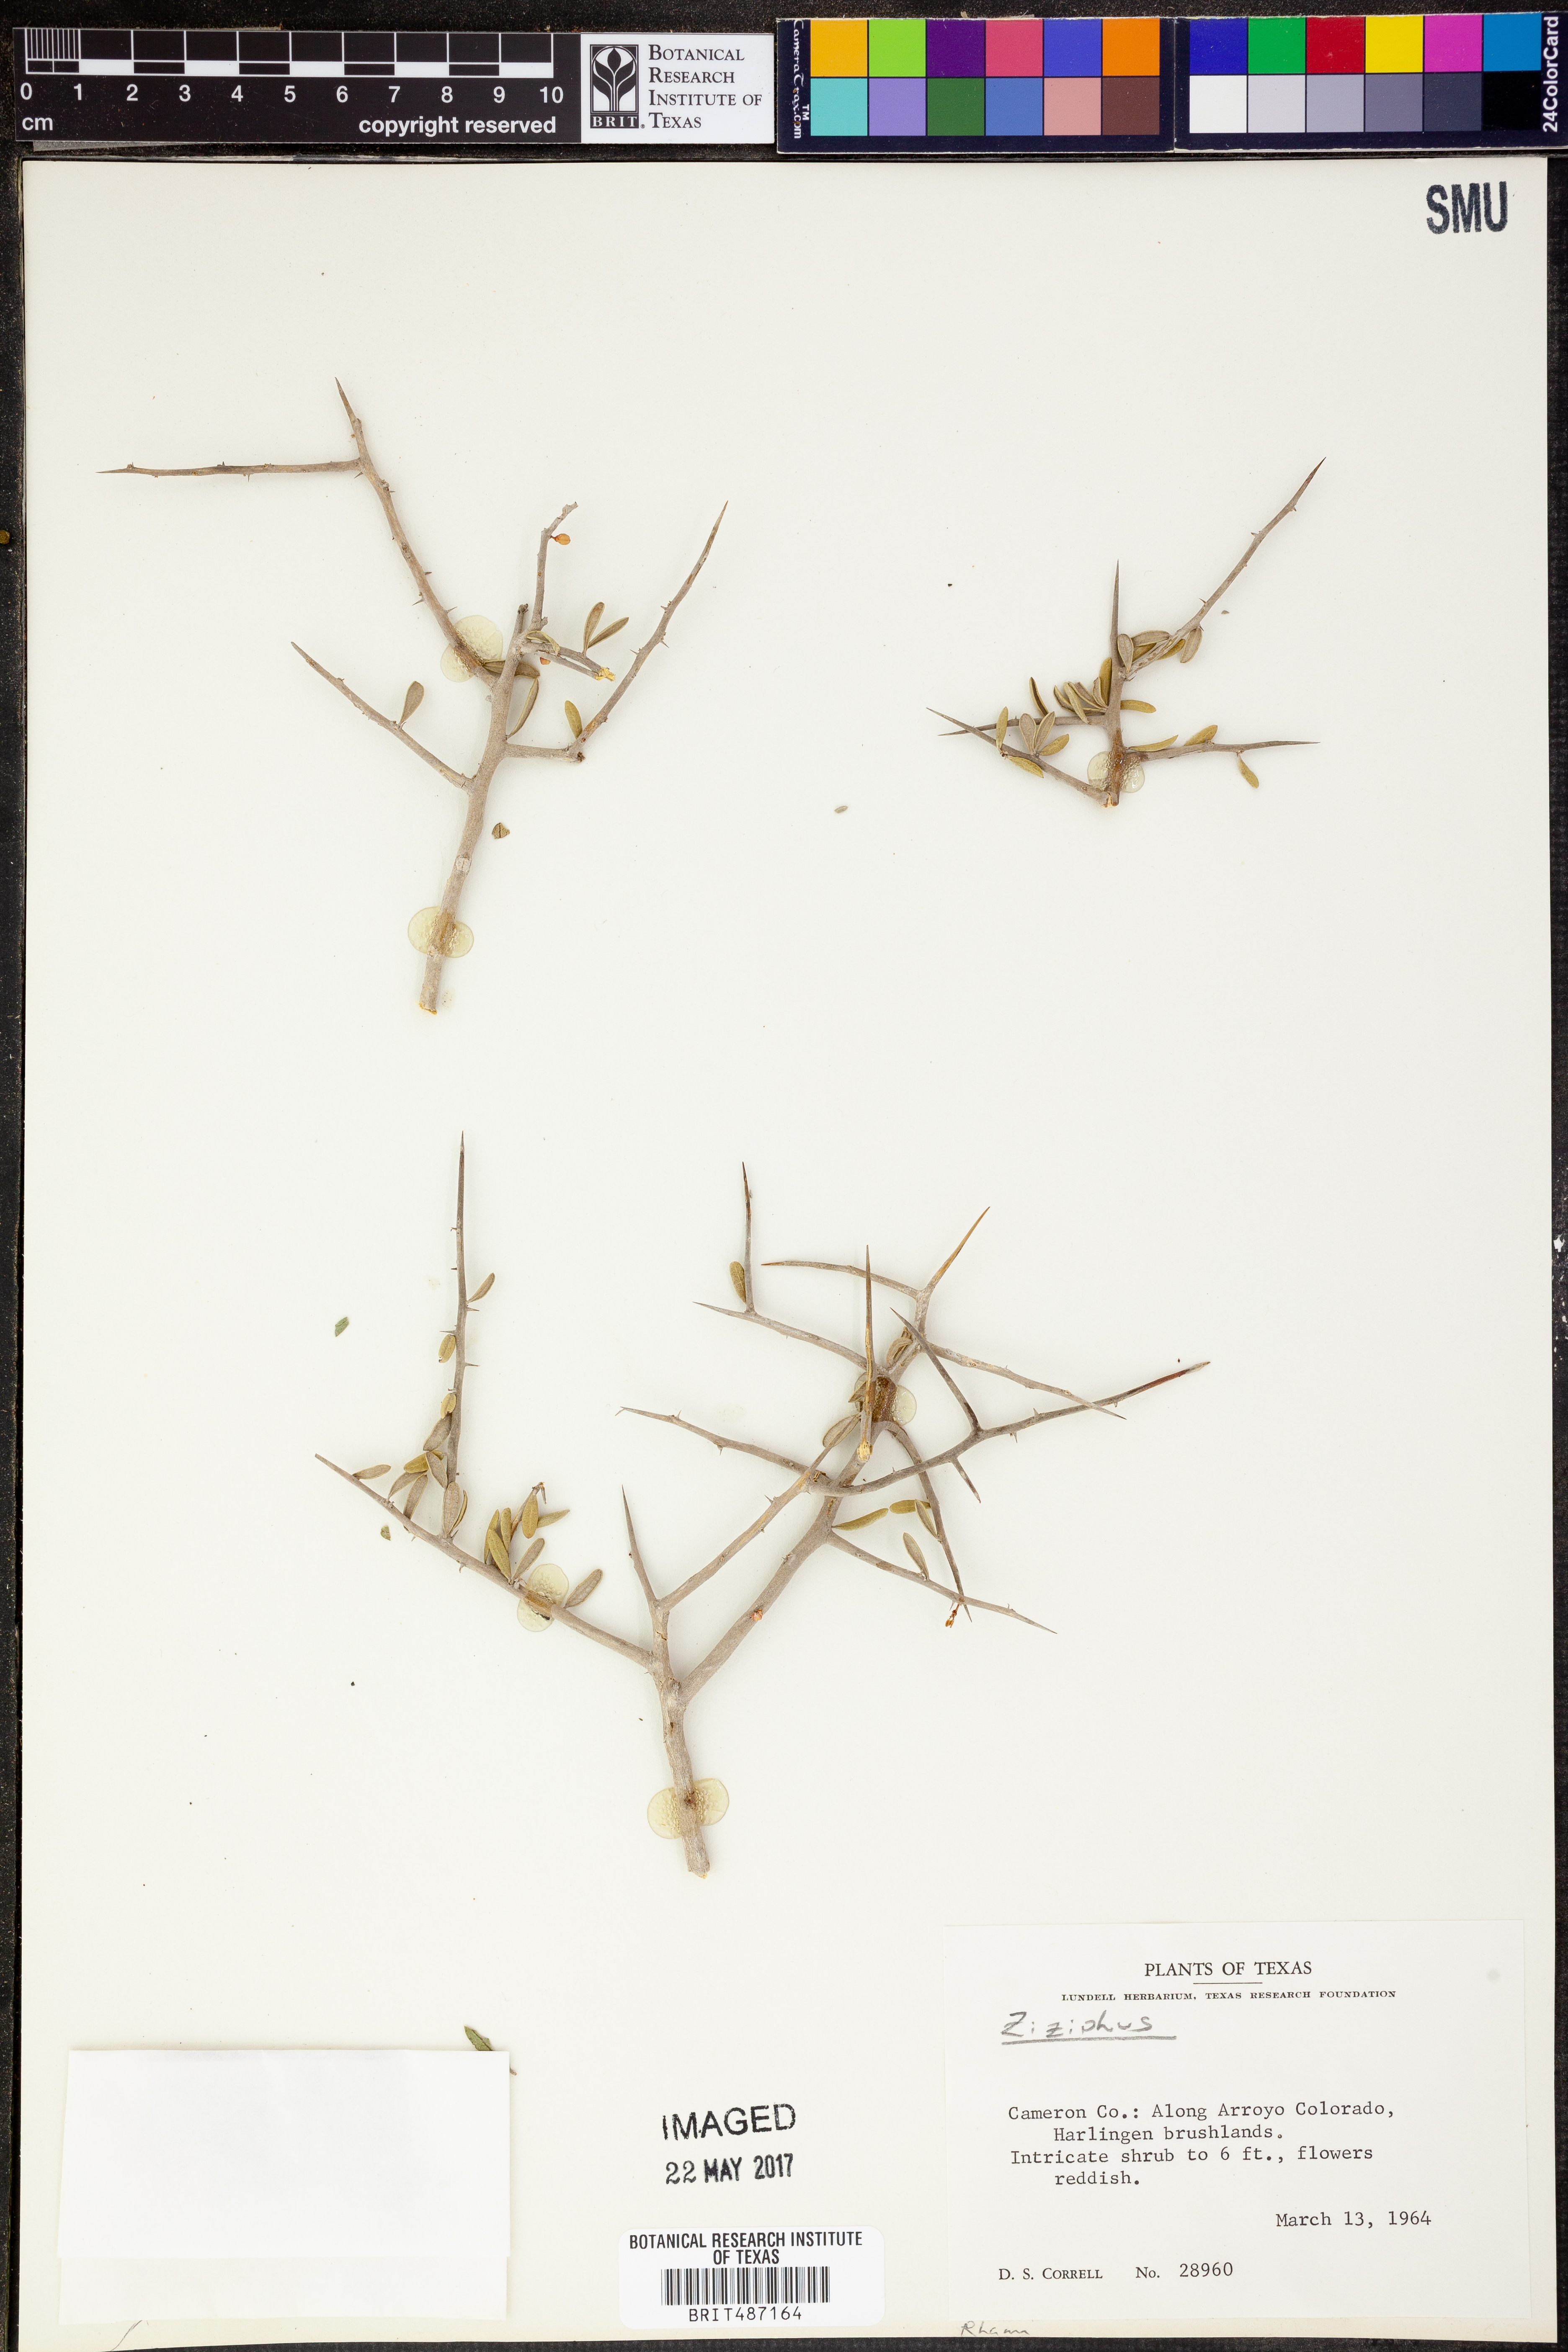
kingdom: Plantae
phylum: Tracheophyta
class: Magnoliopsida
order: Rosales
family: Rhamnaceae
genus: Ziziphus
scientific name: Ziziphus
